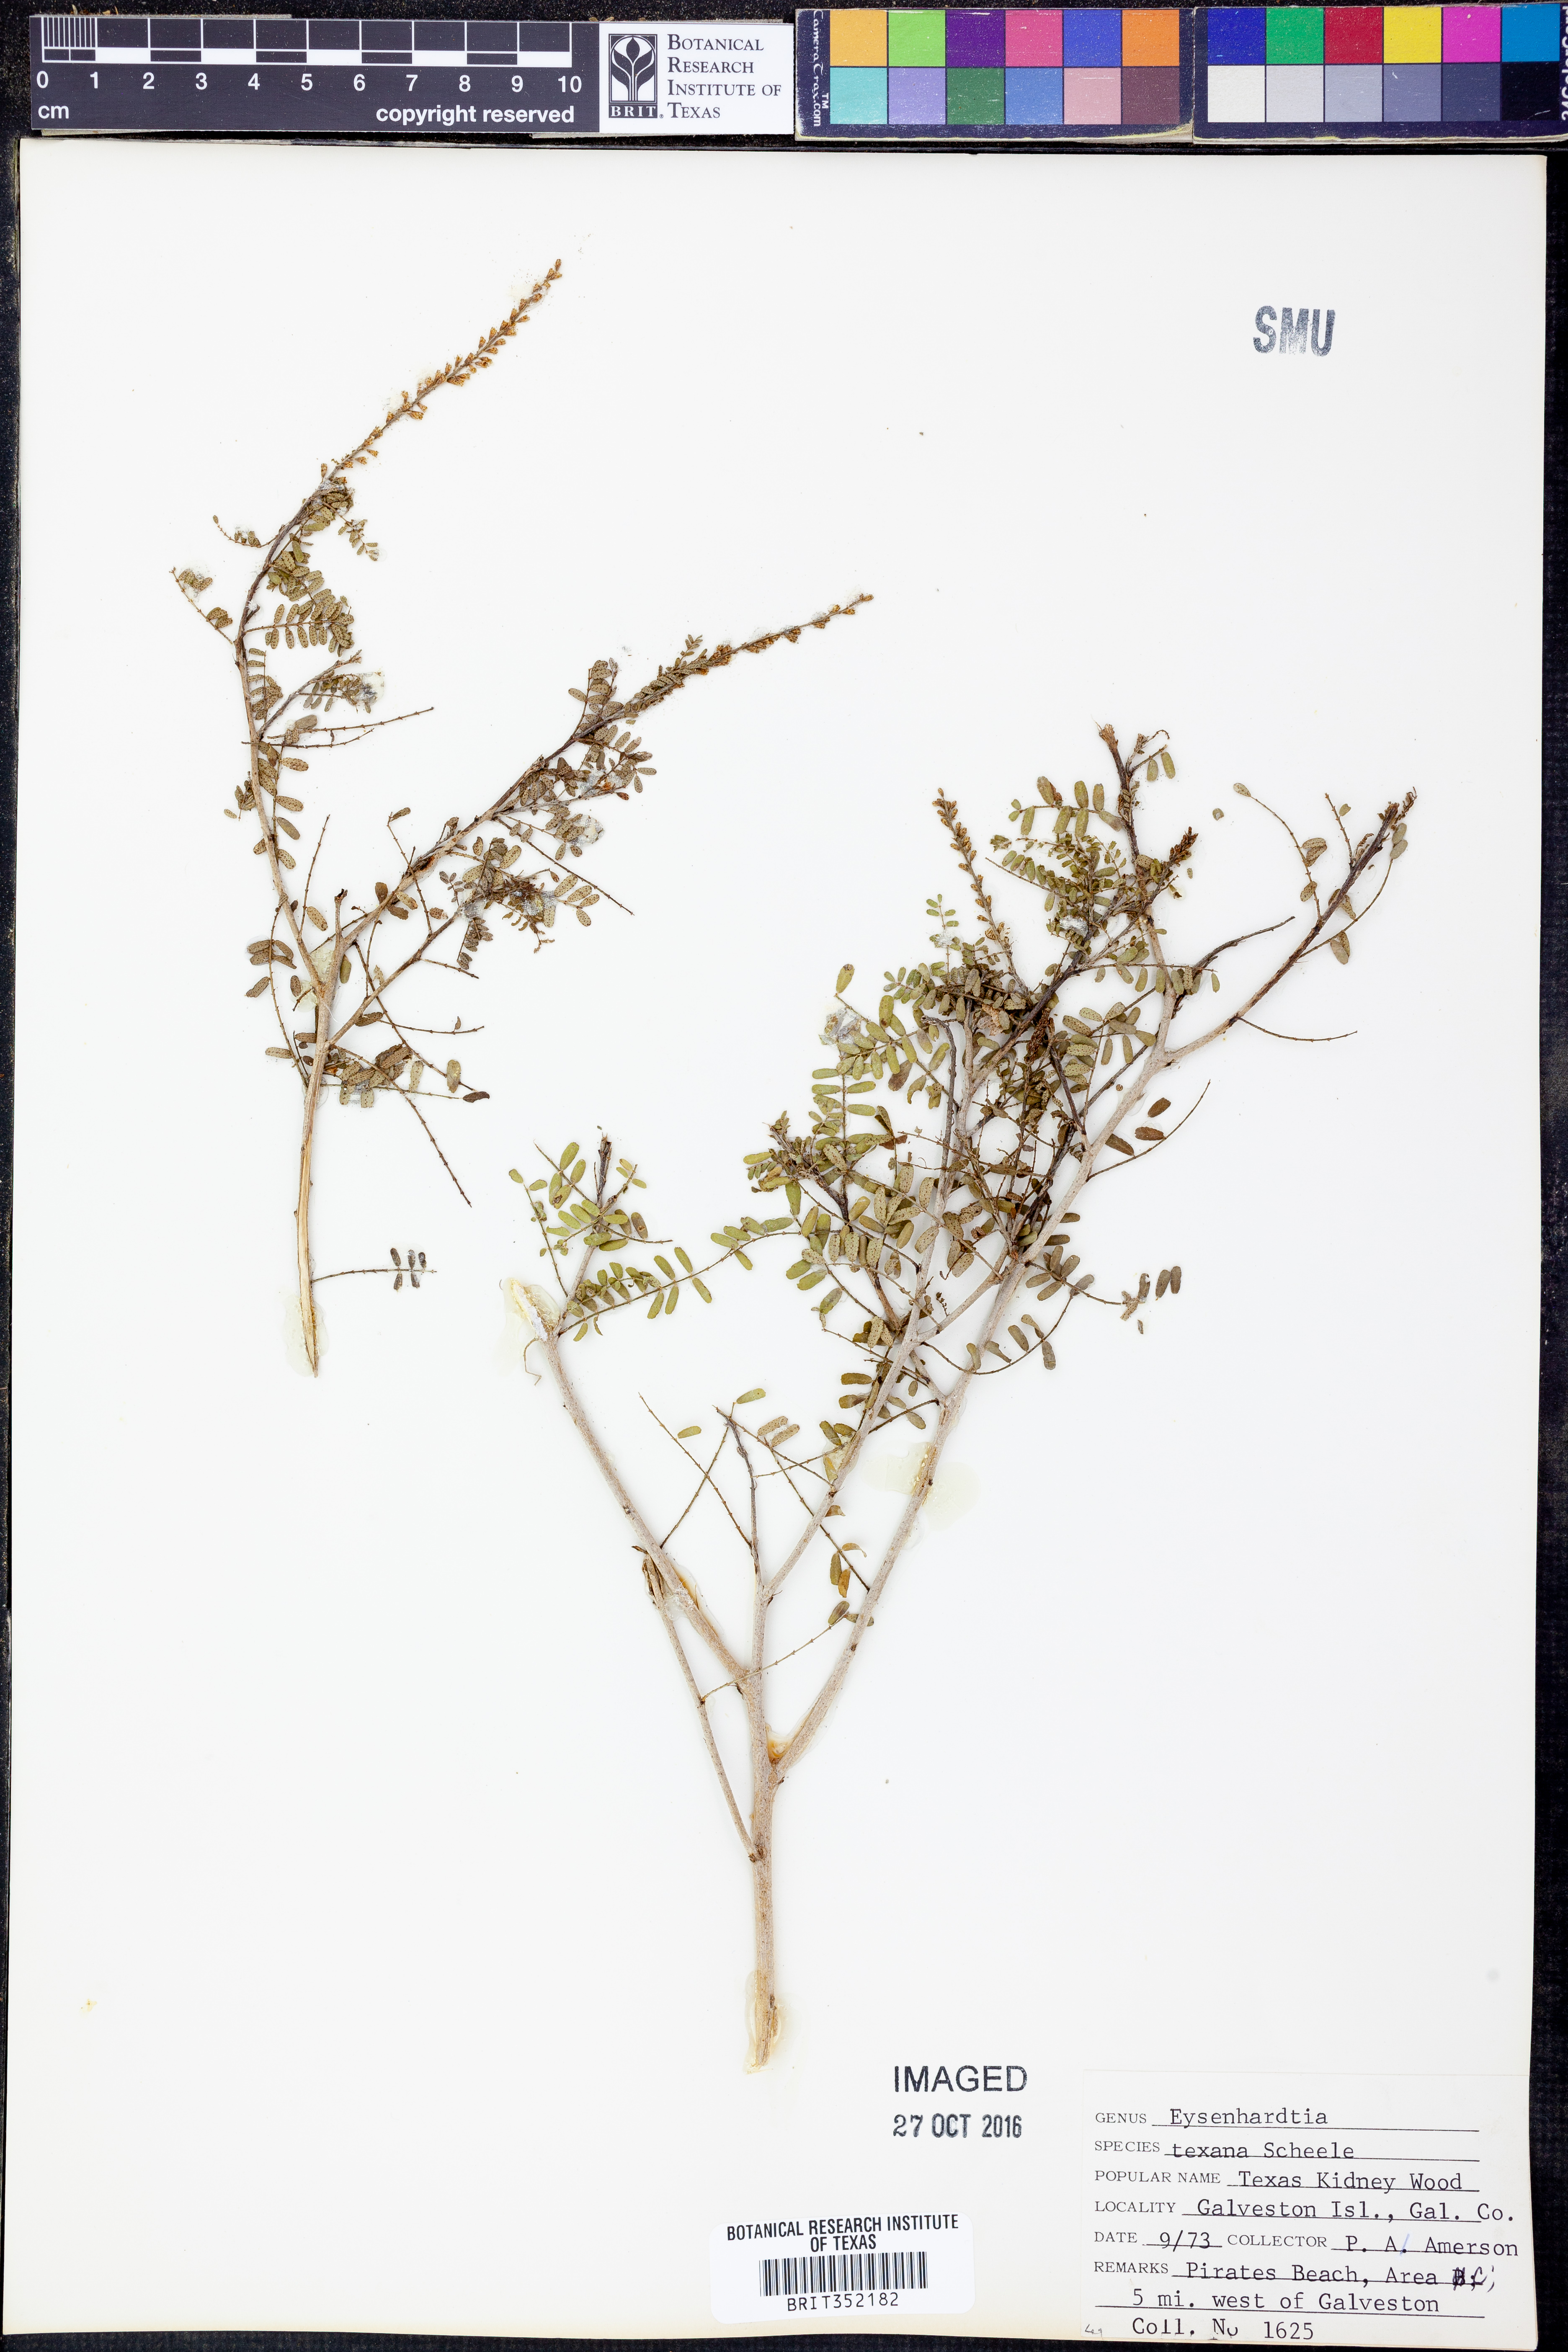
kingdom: Plantae
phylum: Tracheophyta
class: Magnoliopsida
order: Fabales
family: Fabaceae
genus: Eysenhardtia
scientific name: Eysenhardtia texana
